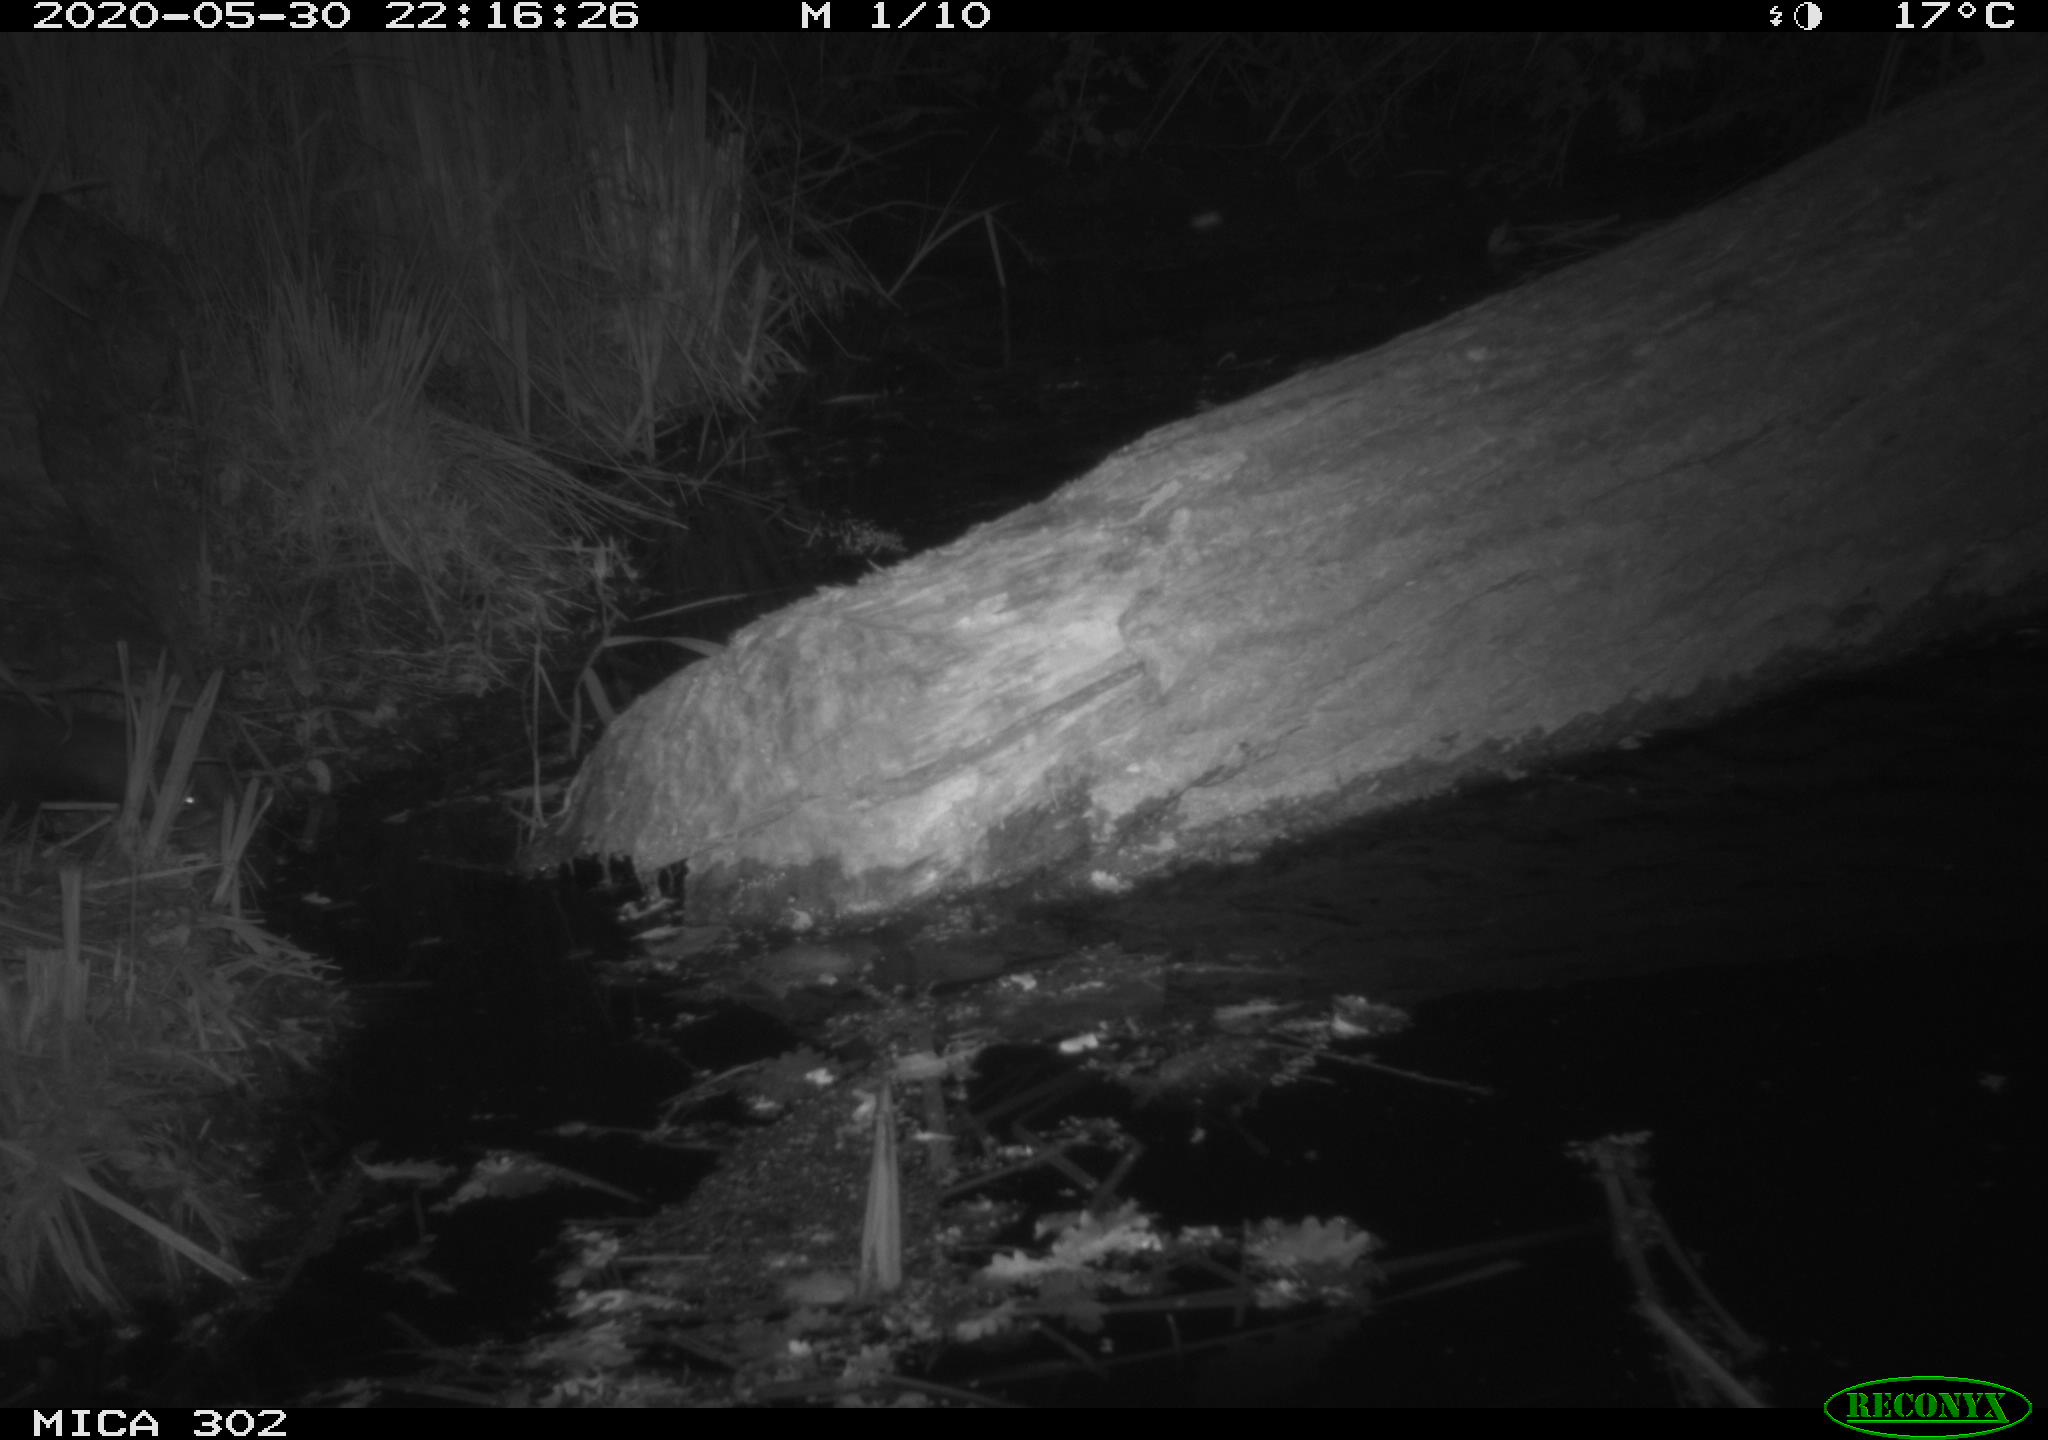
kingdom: Animalia
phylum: Chordata
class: Mammalia
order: Carnivora
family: Mustelidae
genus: Mustela
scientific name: Mustela putorius
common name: European polecat
